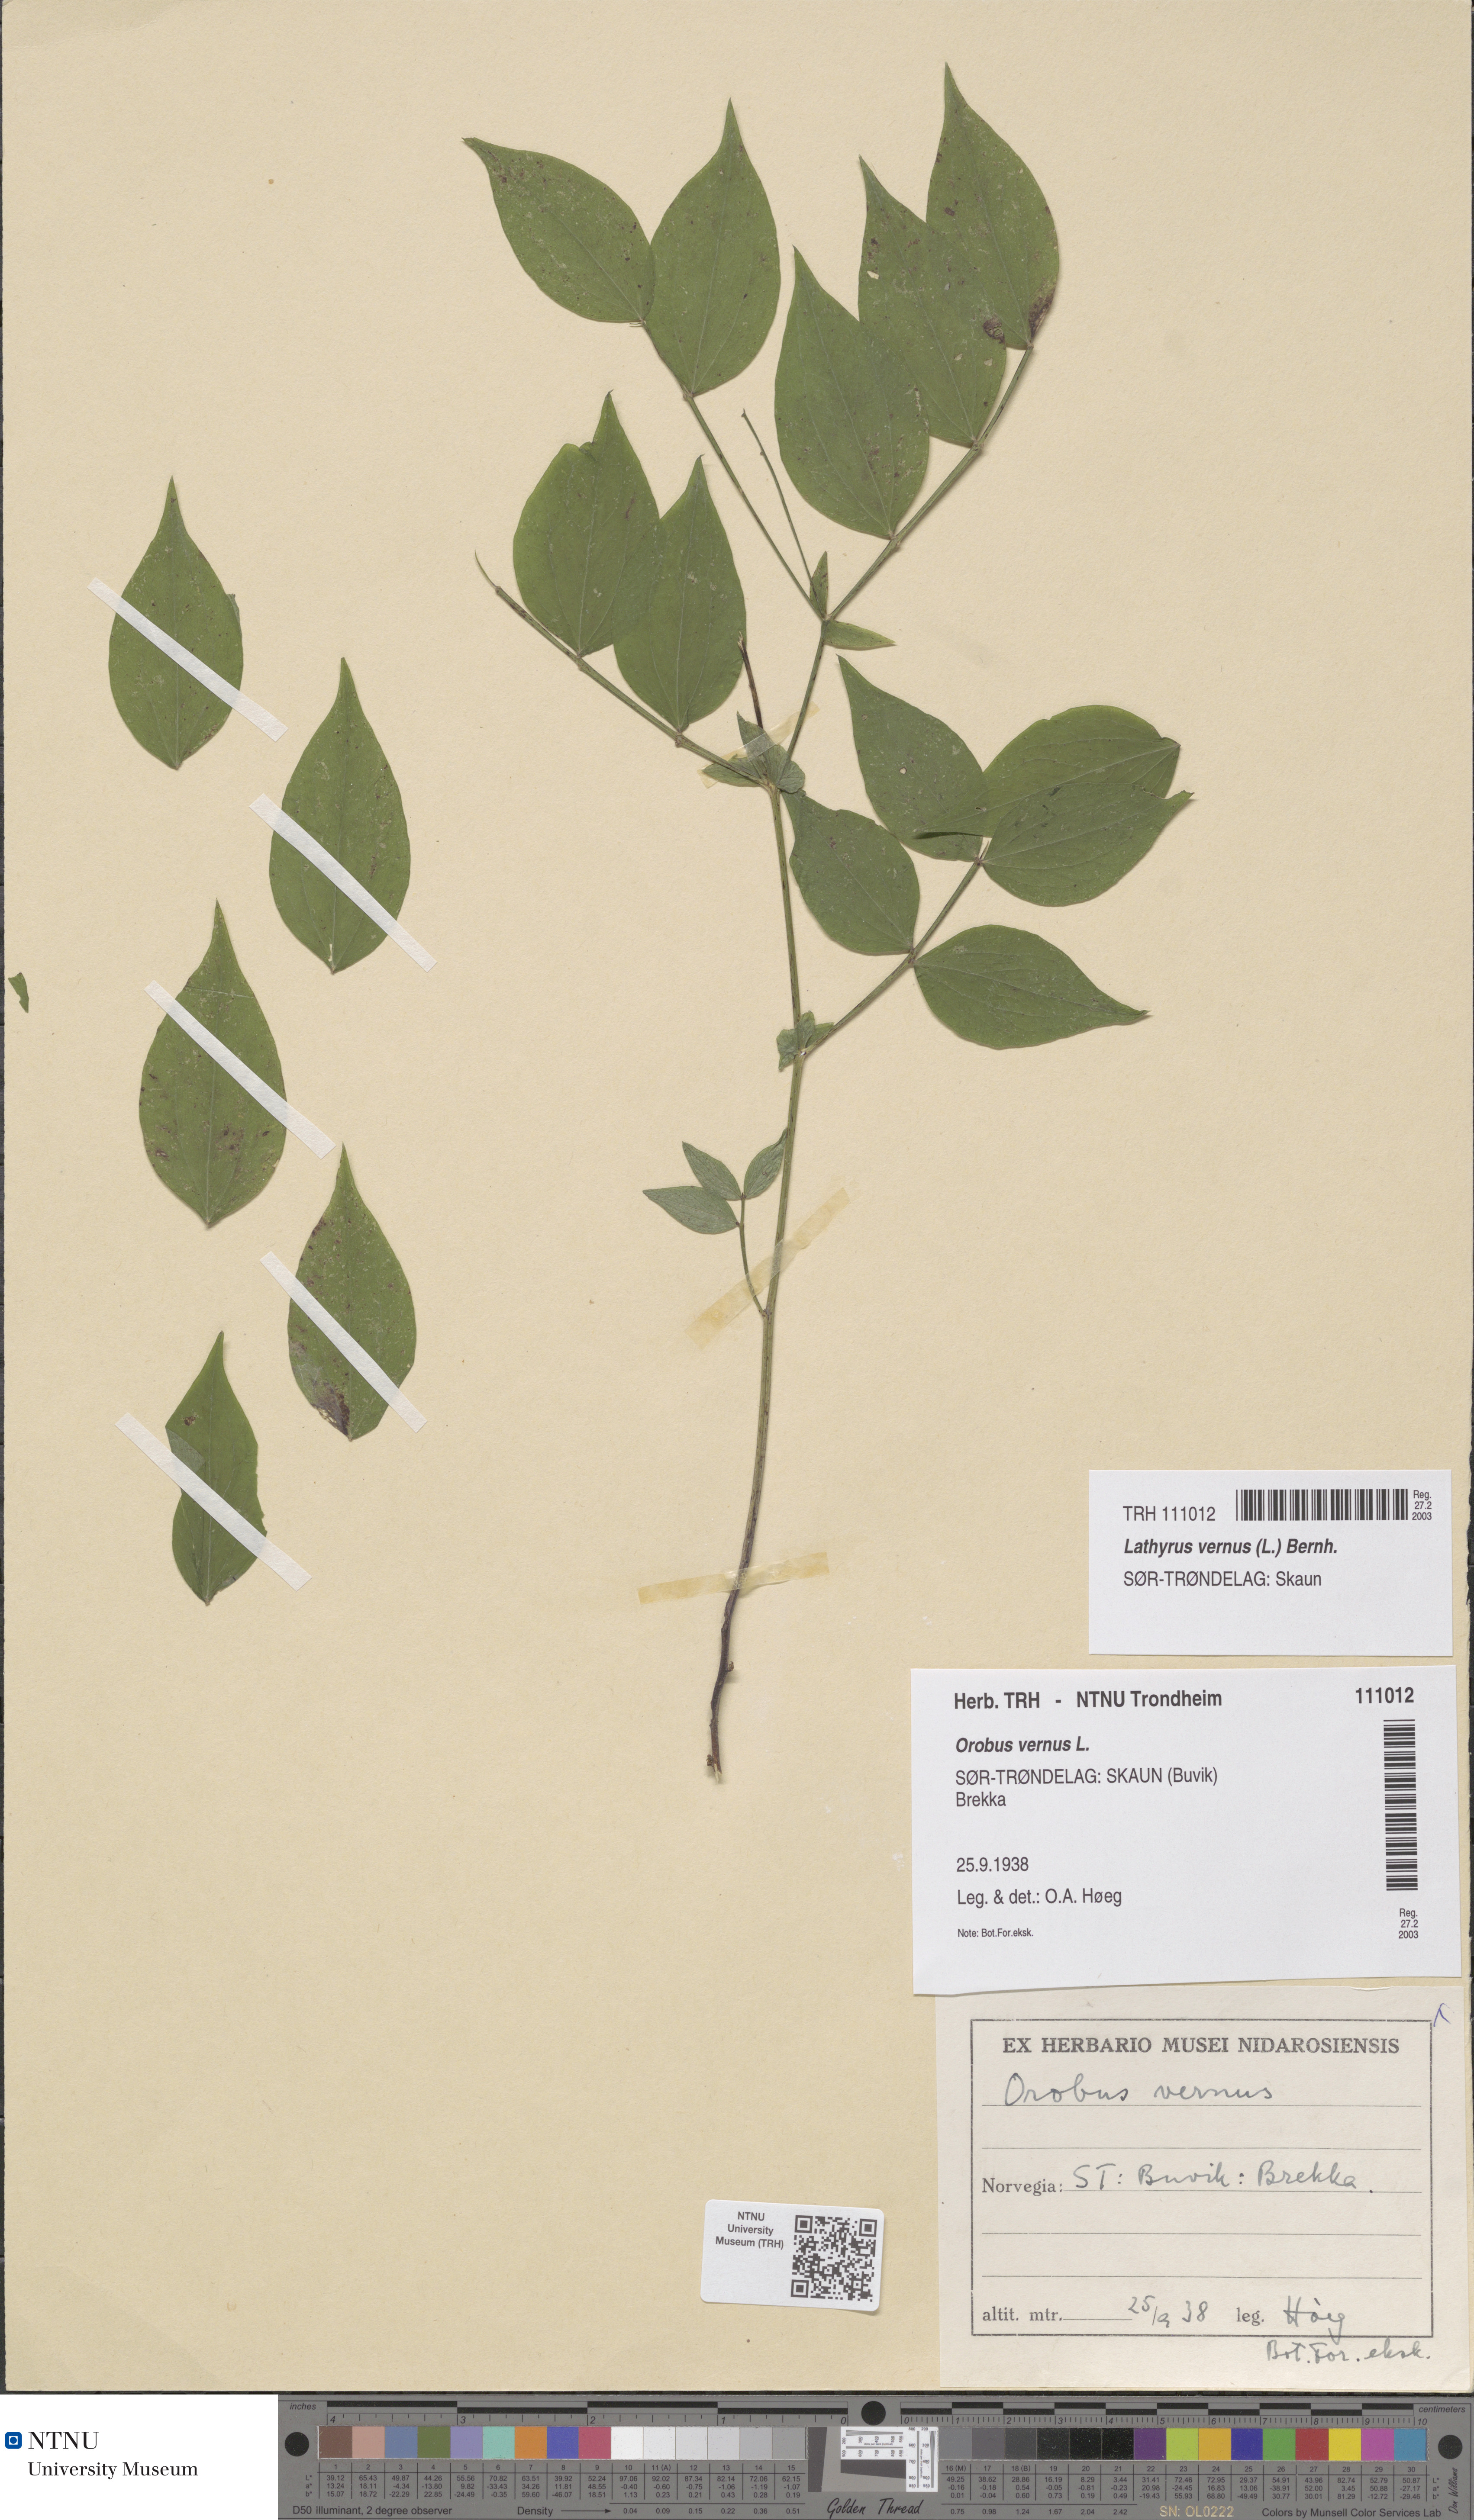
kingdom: Plantae
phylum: Tracheophyta
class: Magnoliopsida
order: Fabales
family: Fabaceae
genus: Lathyrus
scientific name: Lathyrus vernus
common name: Spring pea
